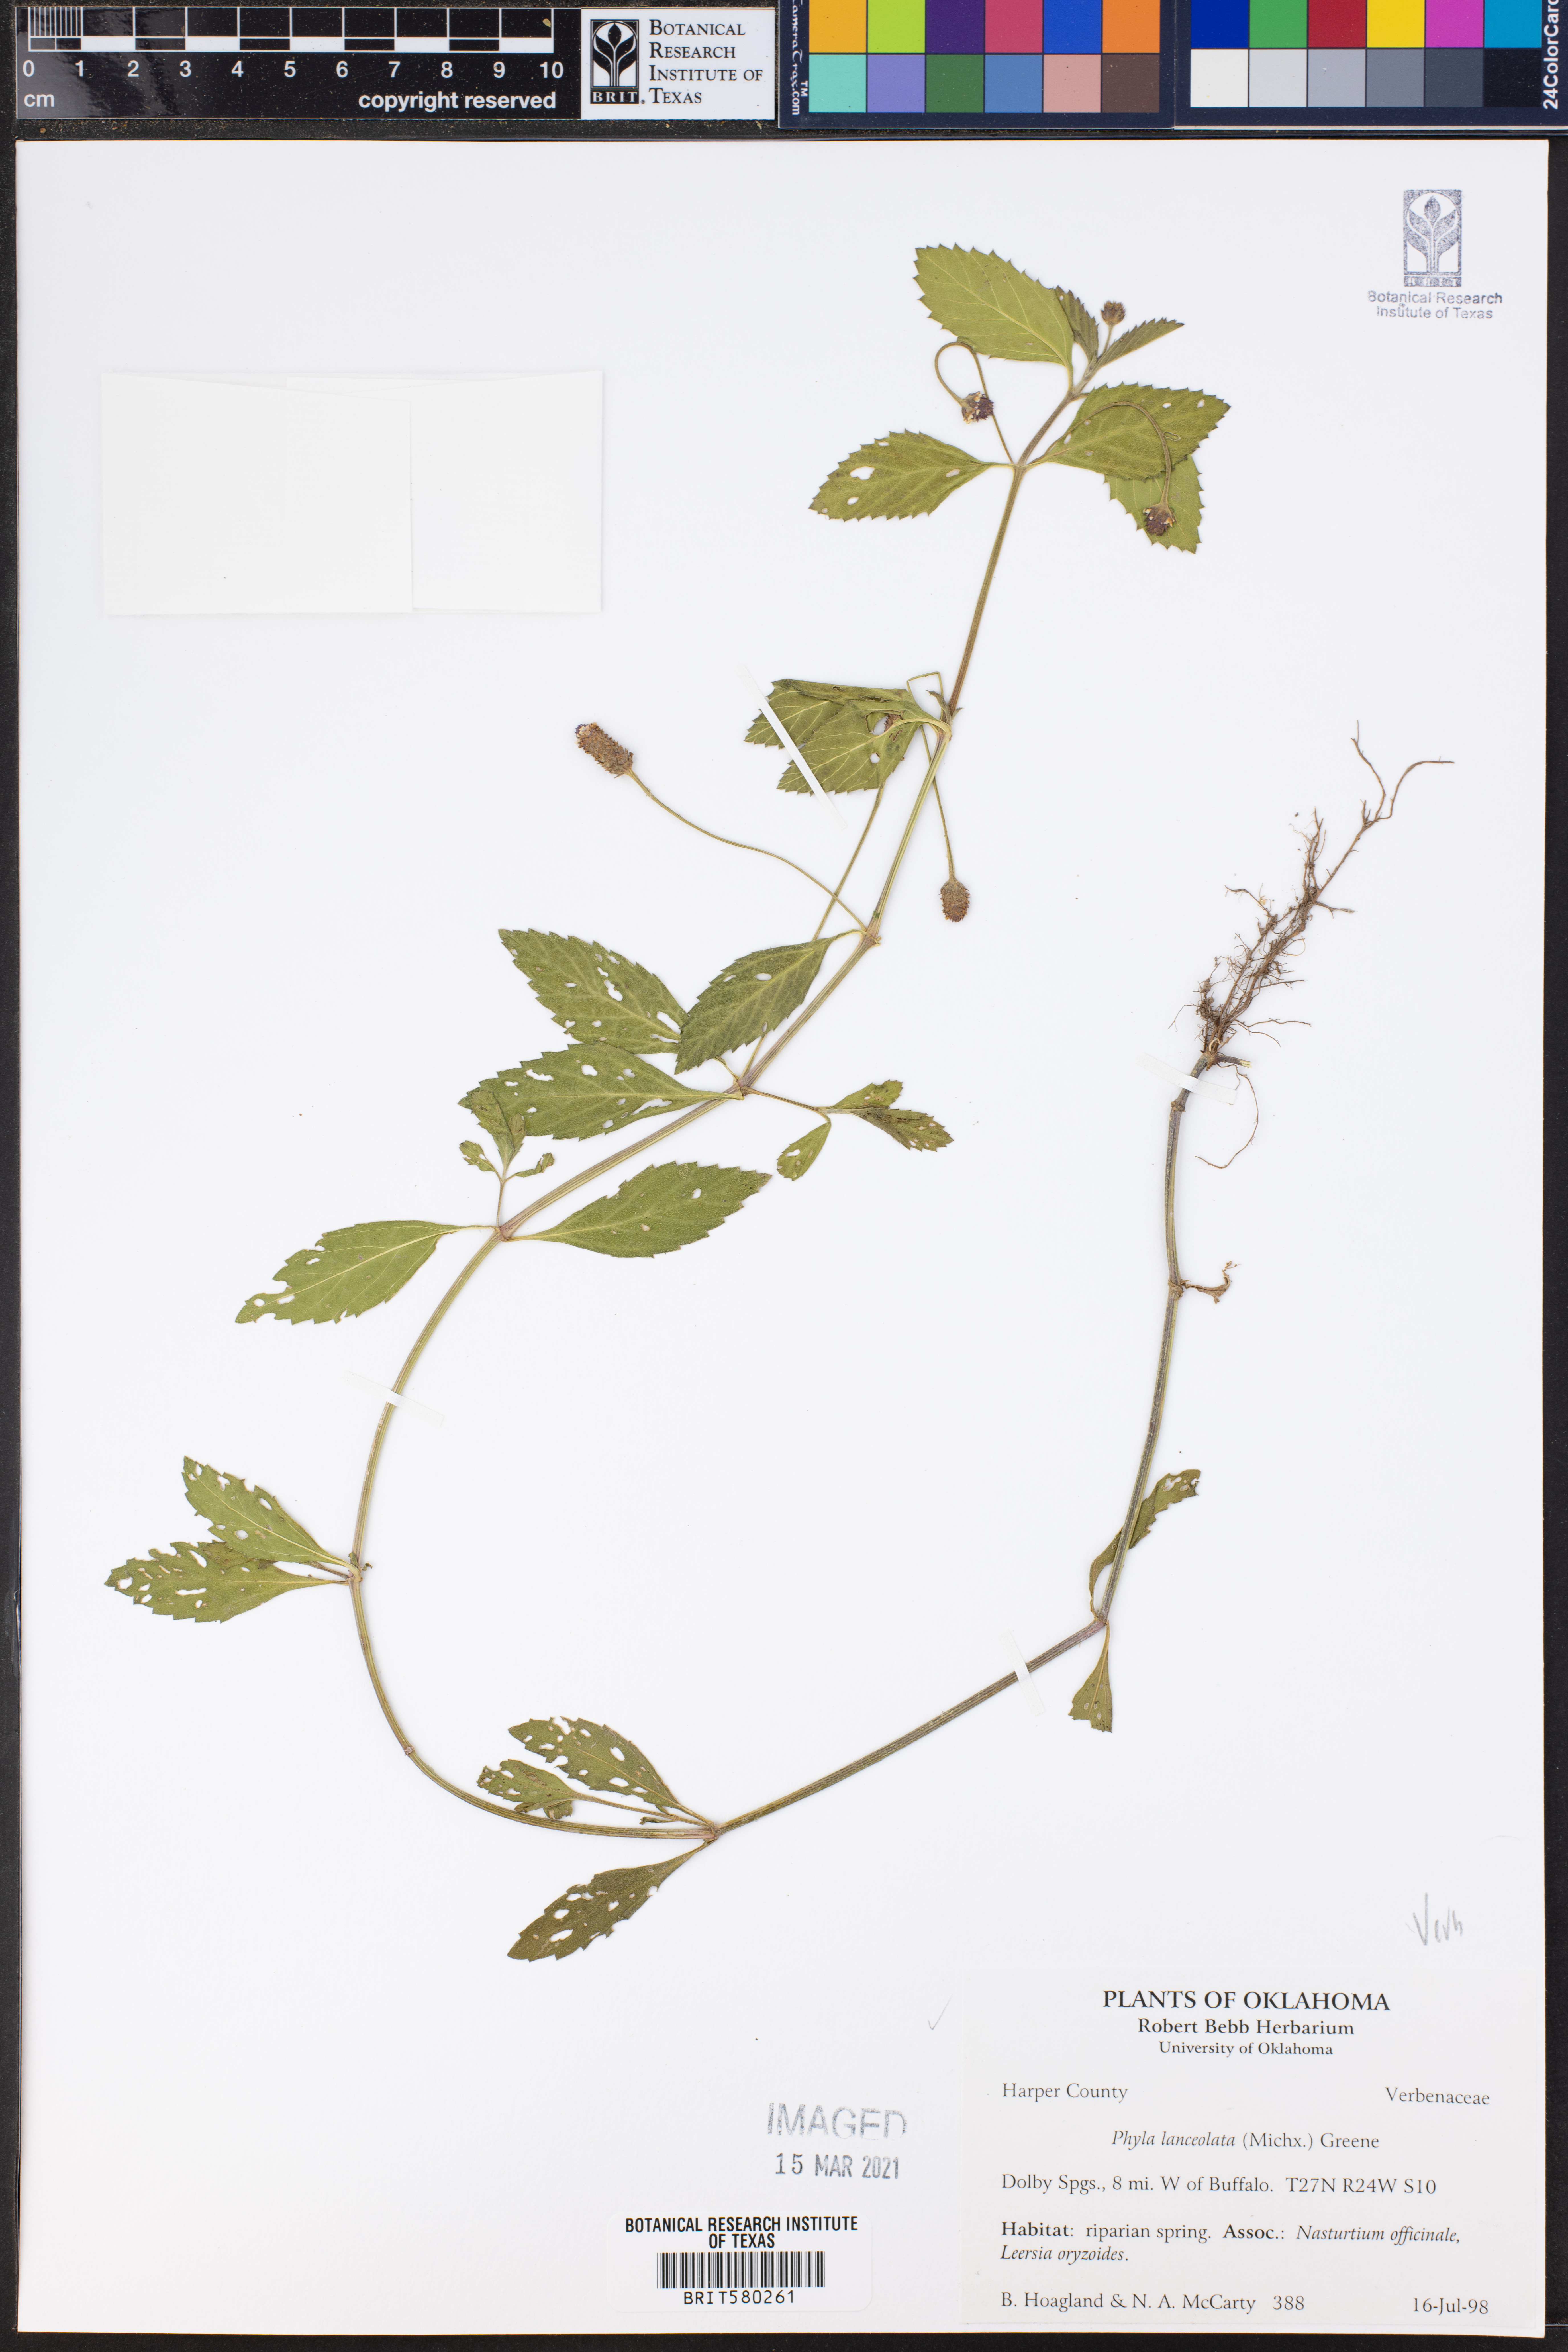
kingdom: Plantae
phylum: Tracheophyta
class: Magnoliopsida
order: Lamiales
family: Verbenaceae
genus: Phyla
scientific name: Phyla lanceolata
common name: Northern fogfruit
